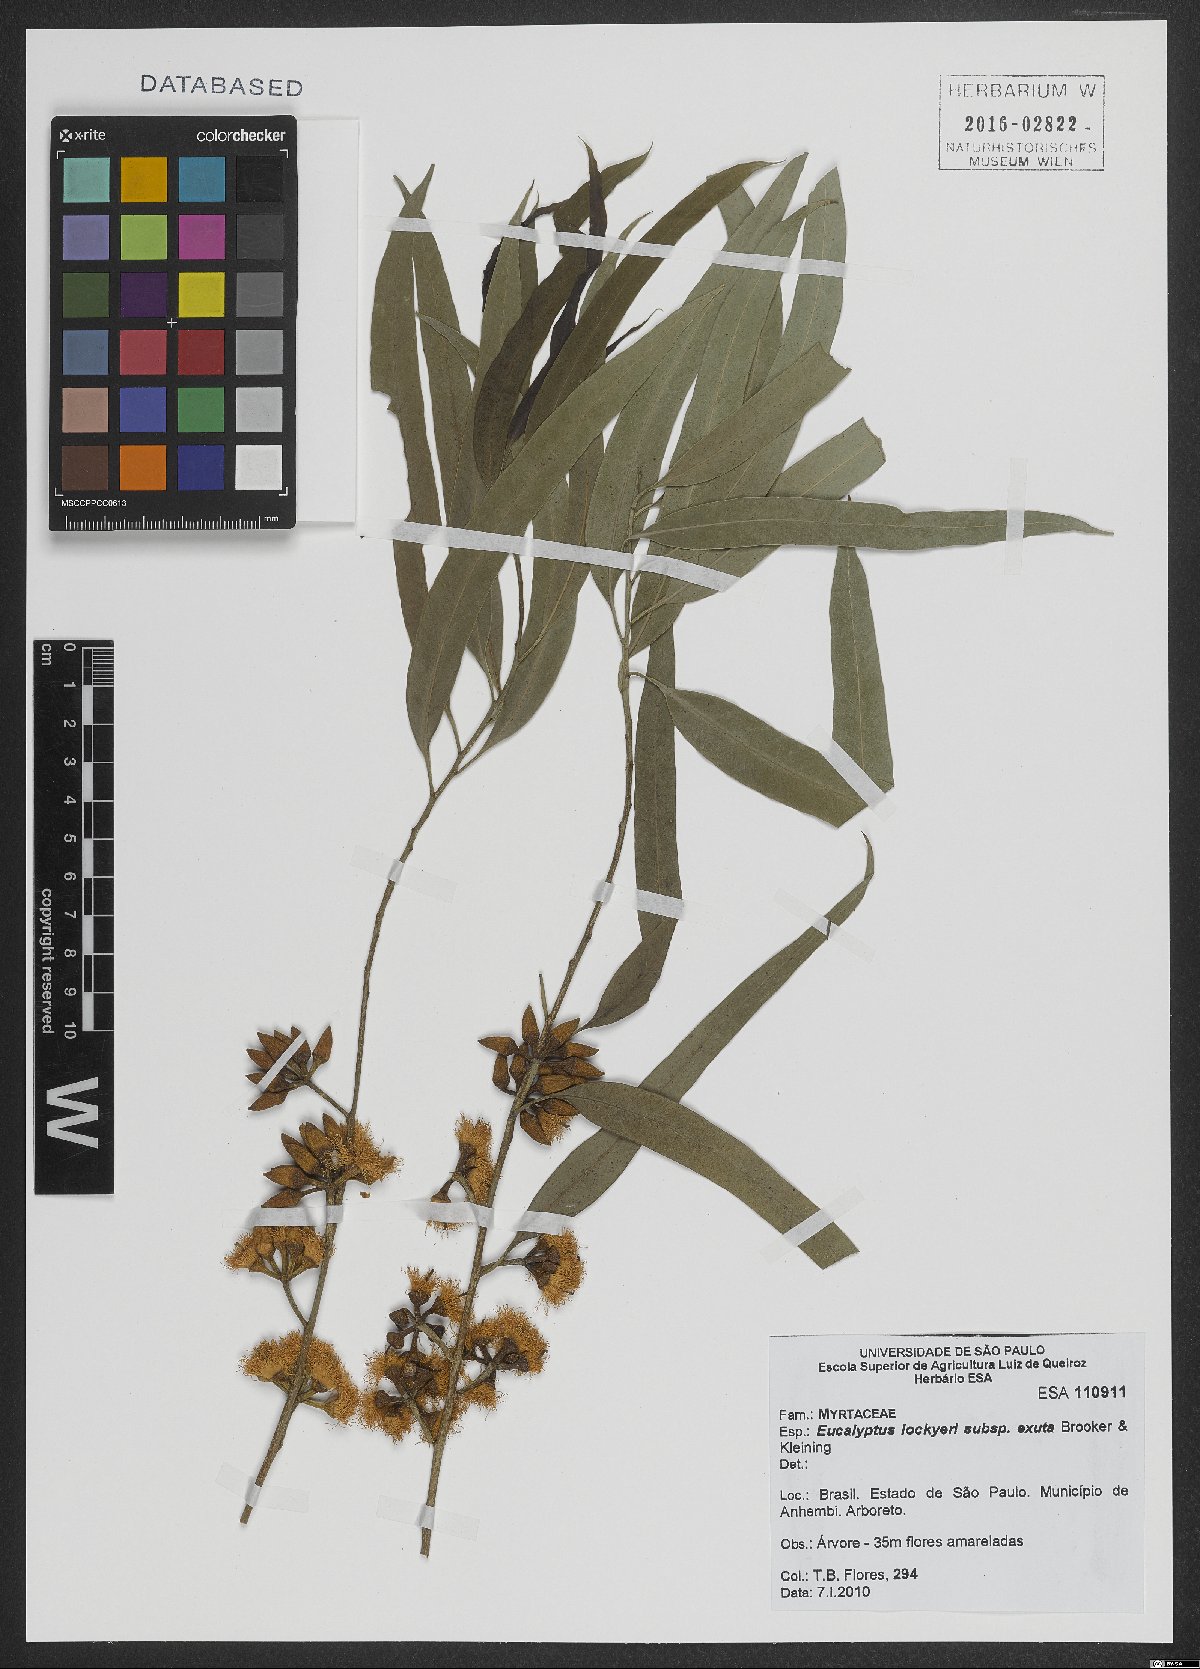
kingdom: Plantae
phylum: Tracheophyta
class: Magnoliopsida
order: Myrtales
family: Myrtaceae
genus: Eucalyptus
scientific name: Eucalyptus lockyeri
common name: Lockyer's-box
